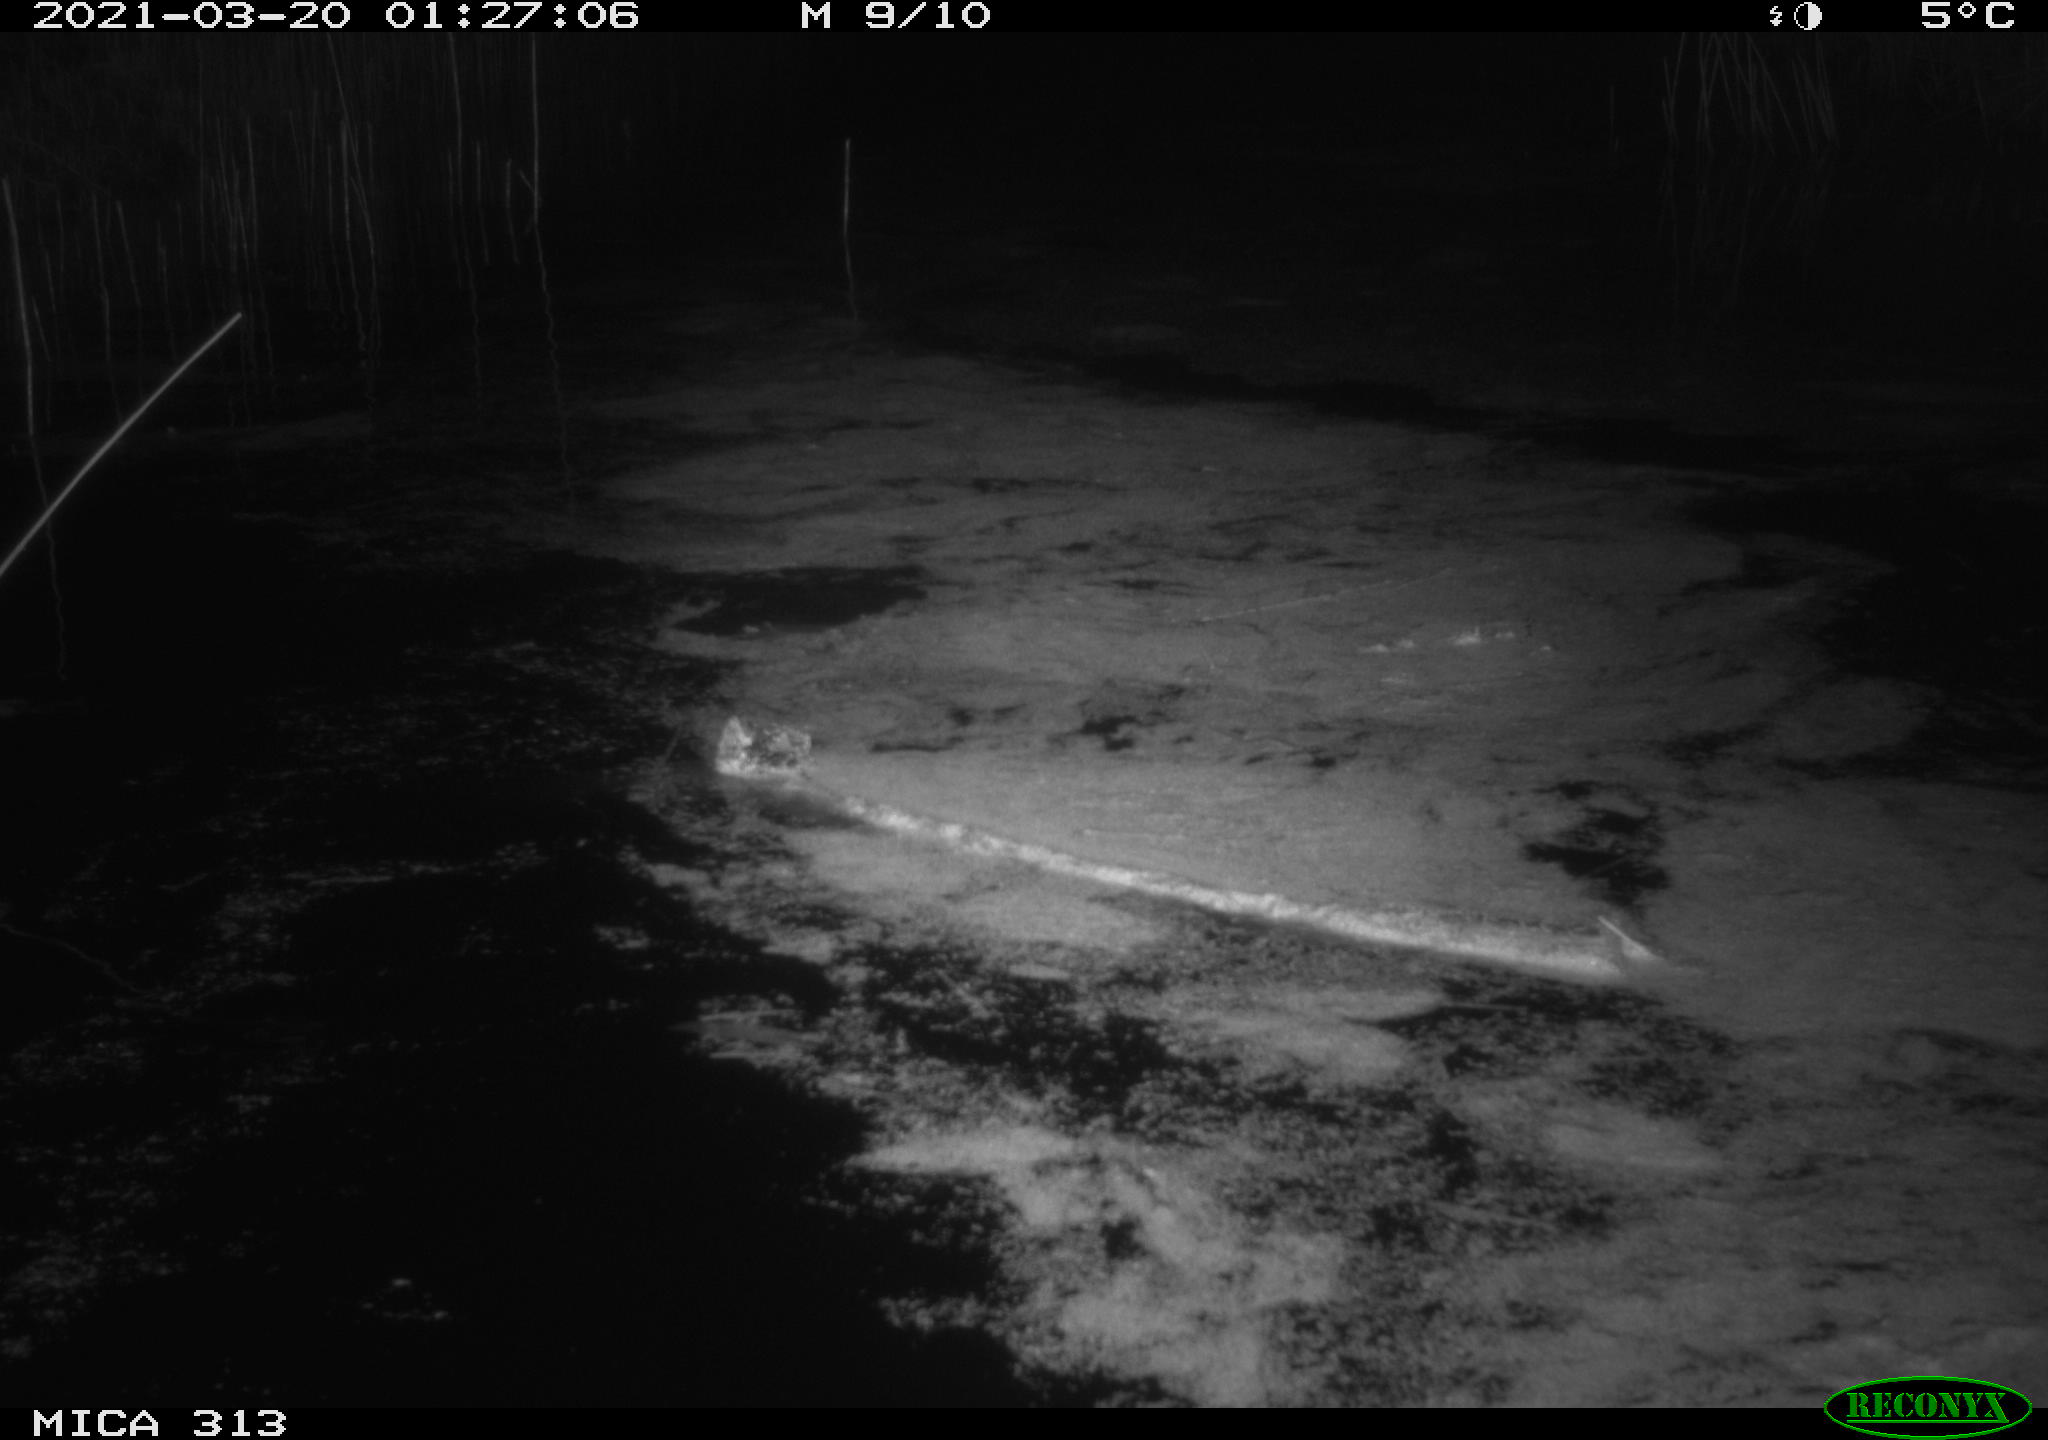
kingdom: Animalia
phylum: Chordata
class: Mammalia
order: Rodentia
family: Muridae
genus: Rattus
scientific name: Rattus norvegicus
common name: Brown rat
